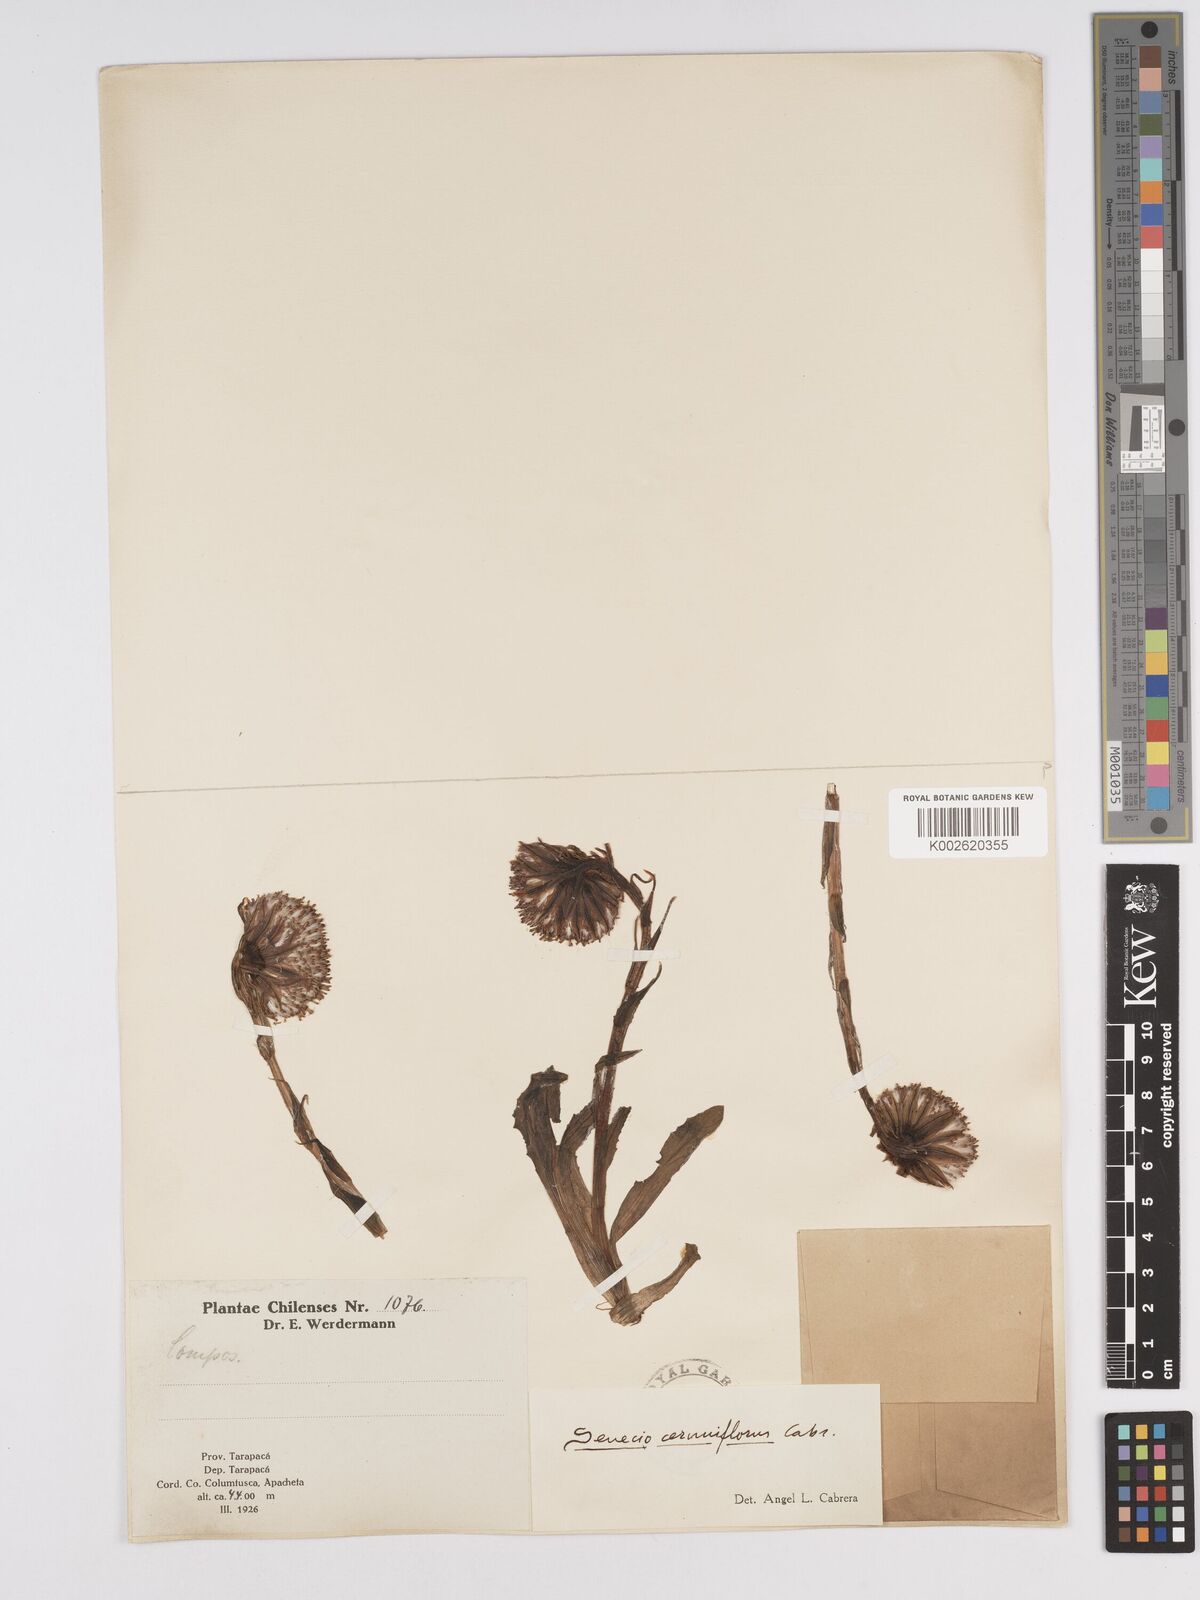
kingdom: Plantae
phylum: Tracheophyta
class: Magnoliopsida
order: Asterales
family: Asteraceae
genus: Senecio
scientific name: Senecio serratifolius
